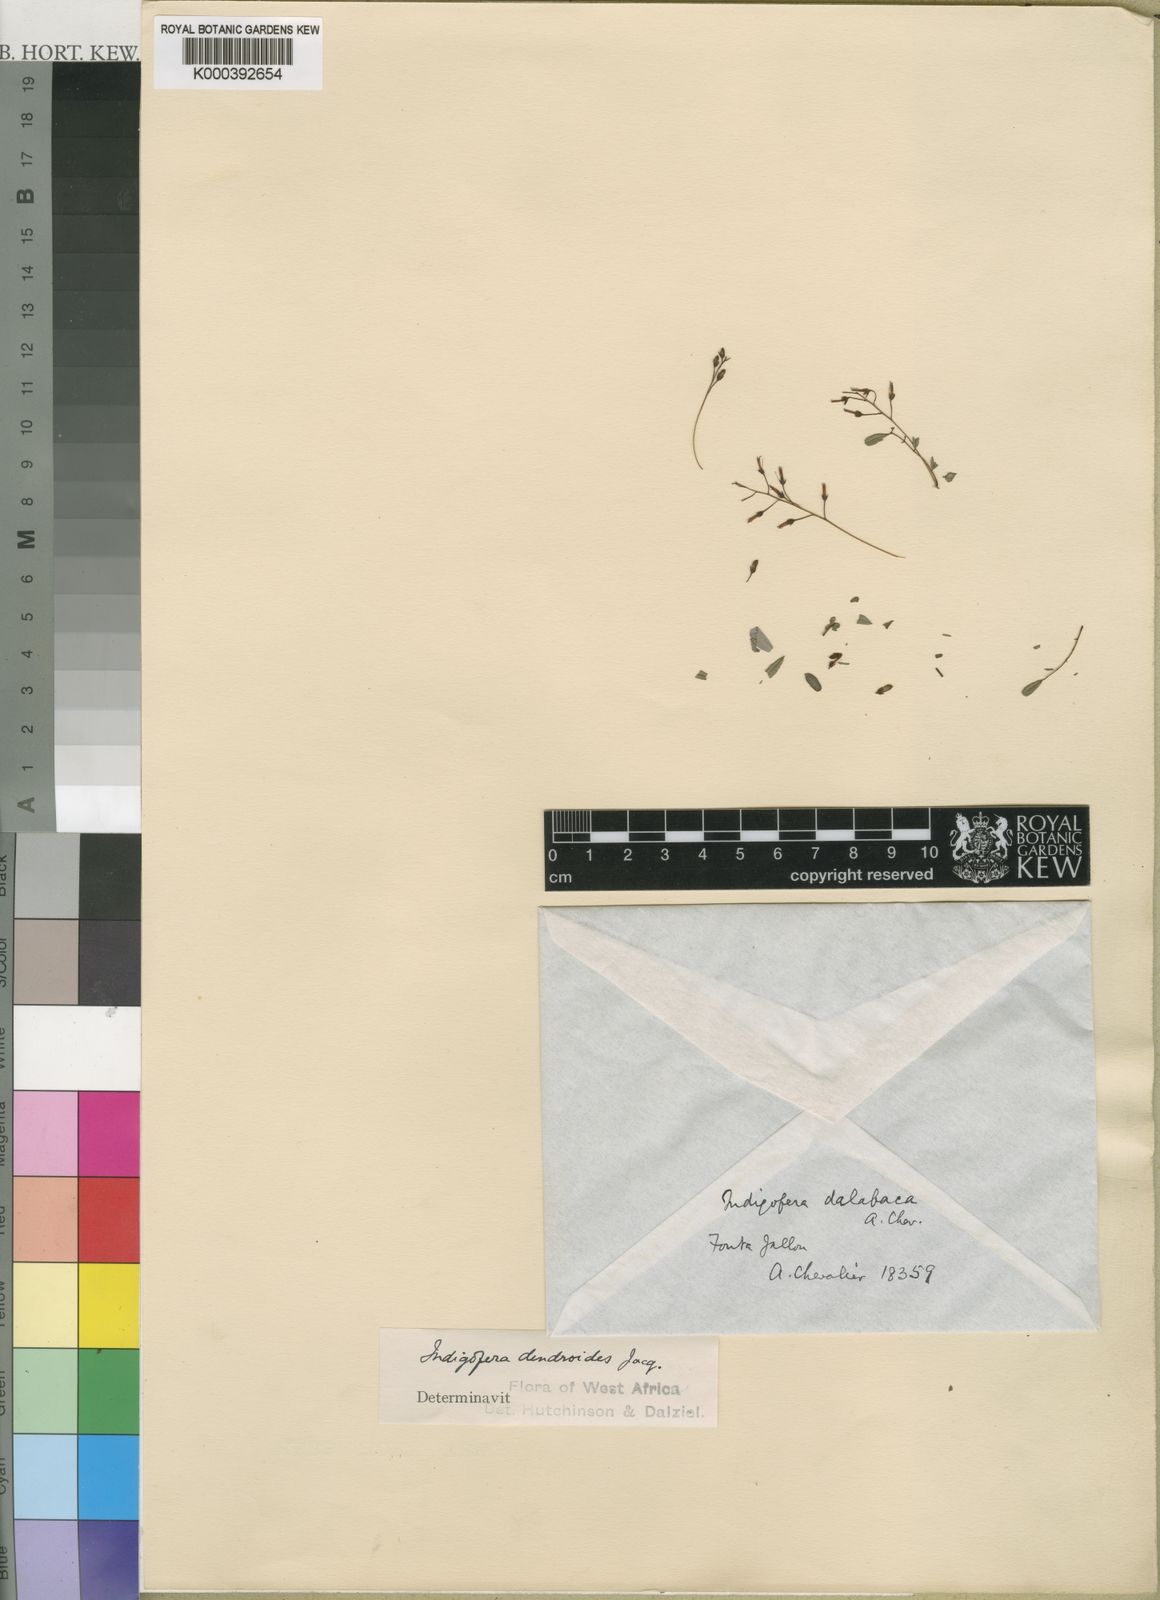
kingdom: Plantae
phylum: Tracheophyta
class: Magnoliopsida
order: Fabales
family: Fabaceae
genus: Indigofera
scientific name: Indigofera dendroides
